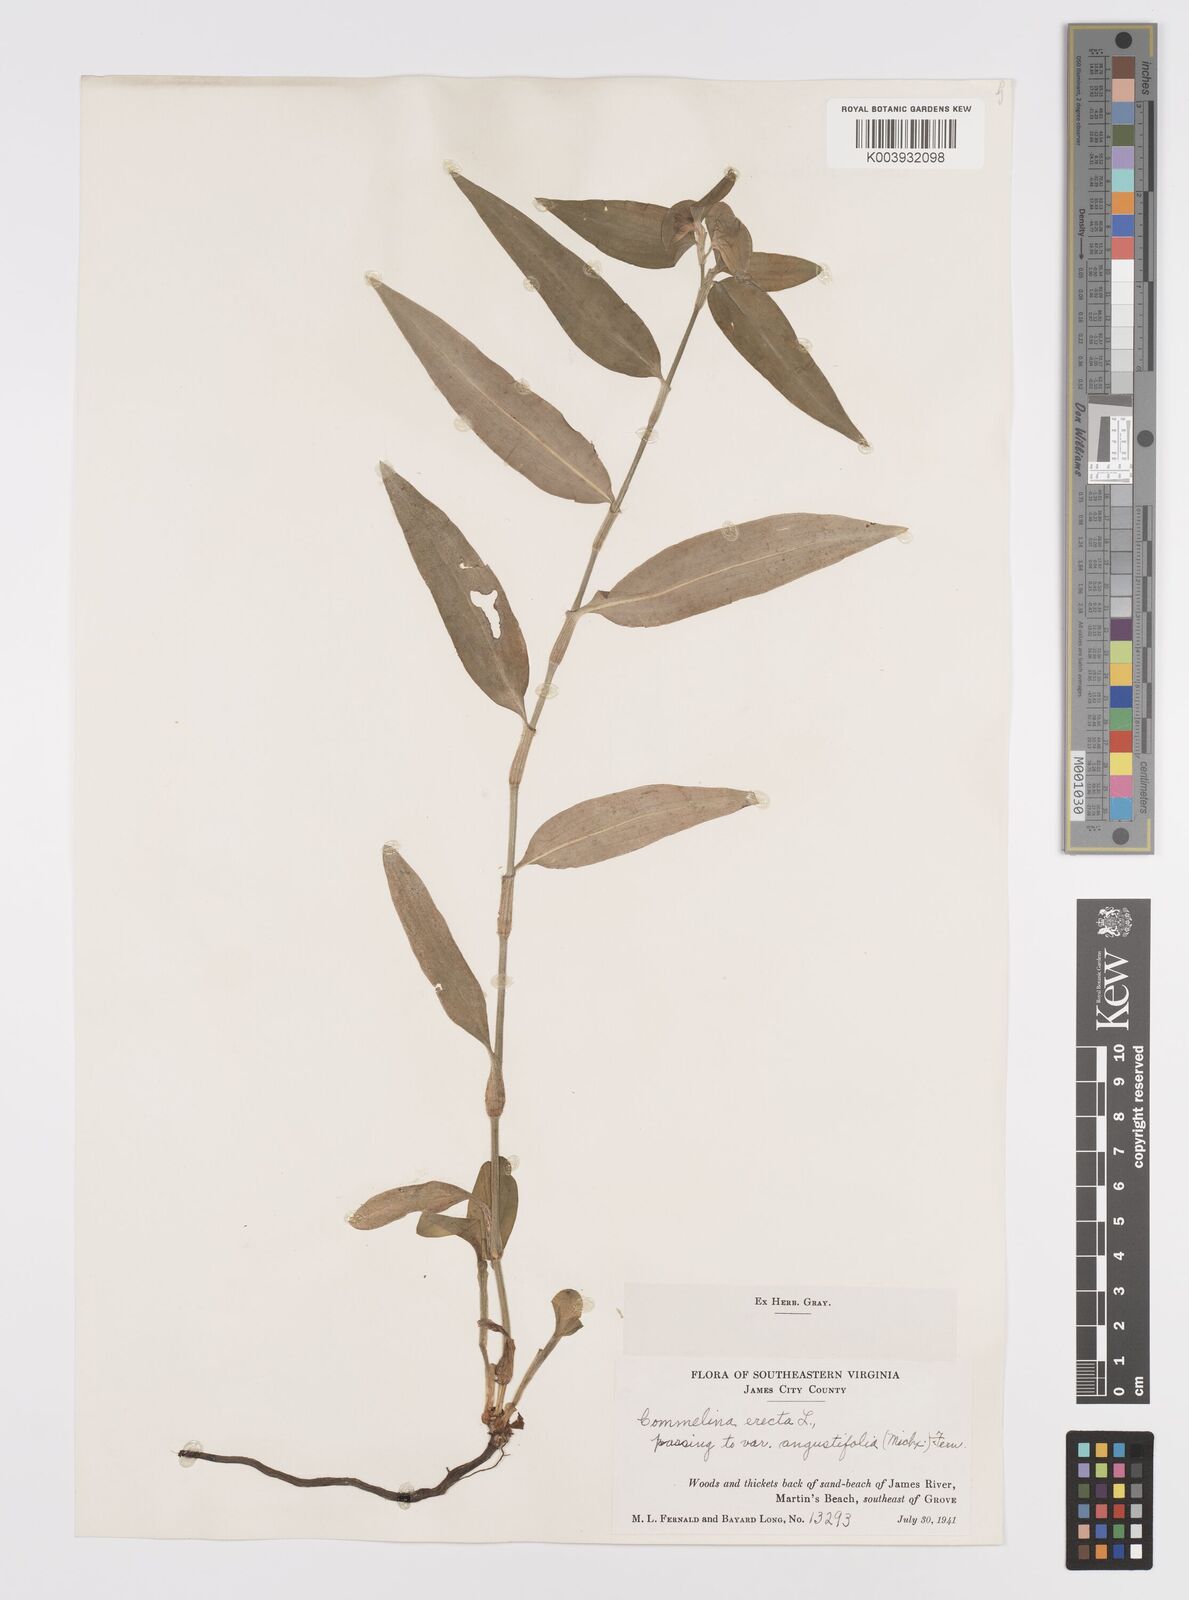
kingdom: Plantae
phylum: Tracheophyta
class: Liliopsida
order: Commelinales
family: Commelinaceae
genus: Commelina
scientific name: Commelina erecta
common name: Blousel blommetjie
